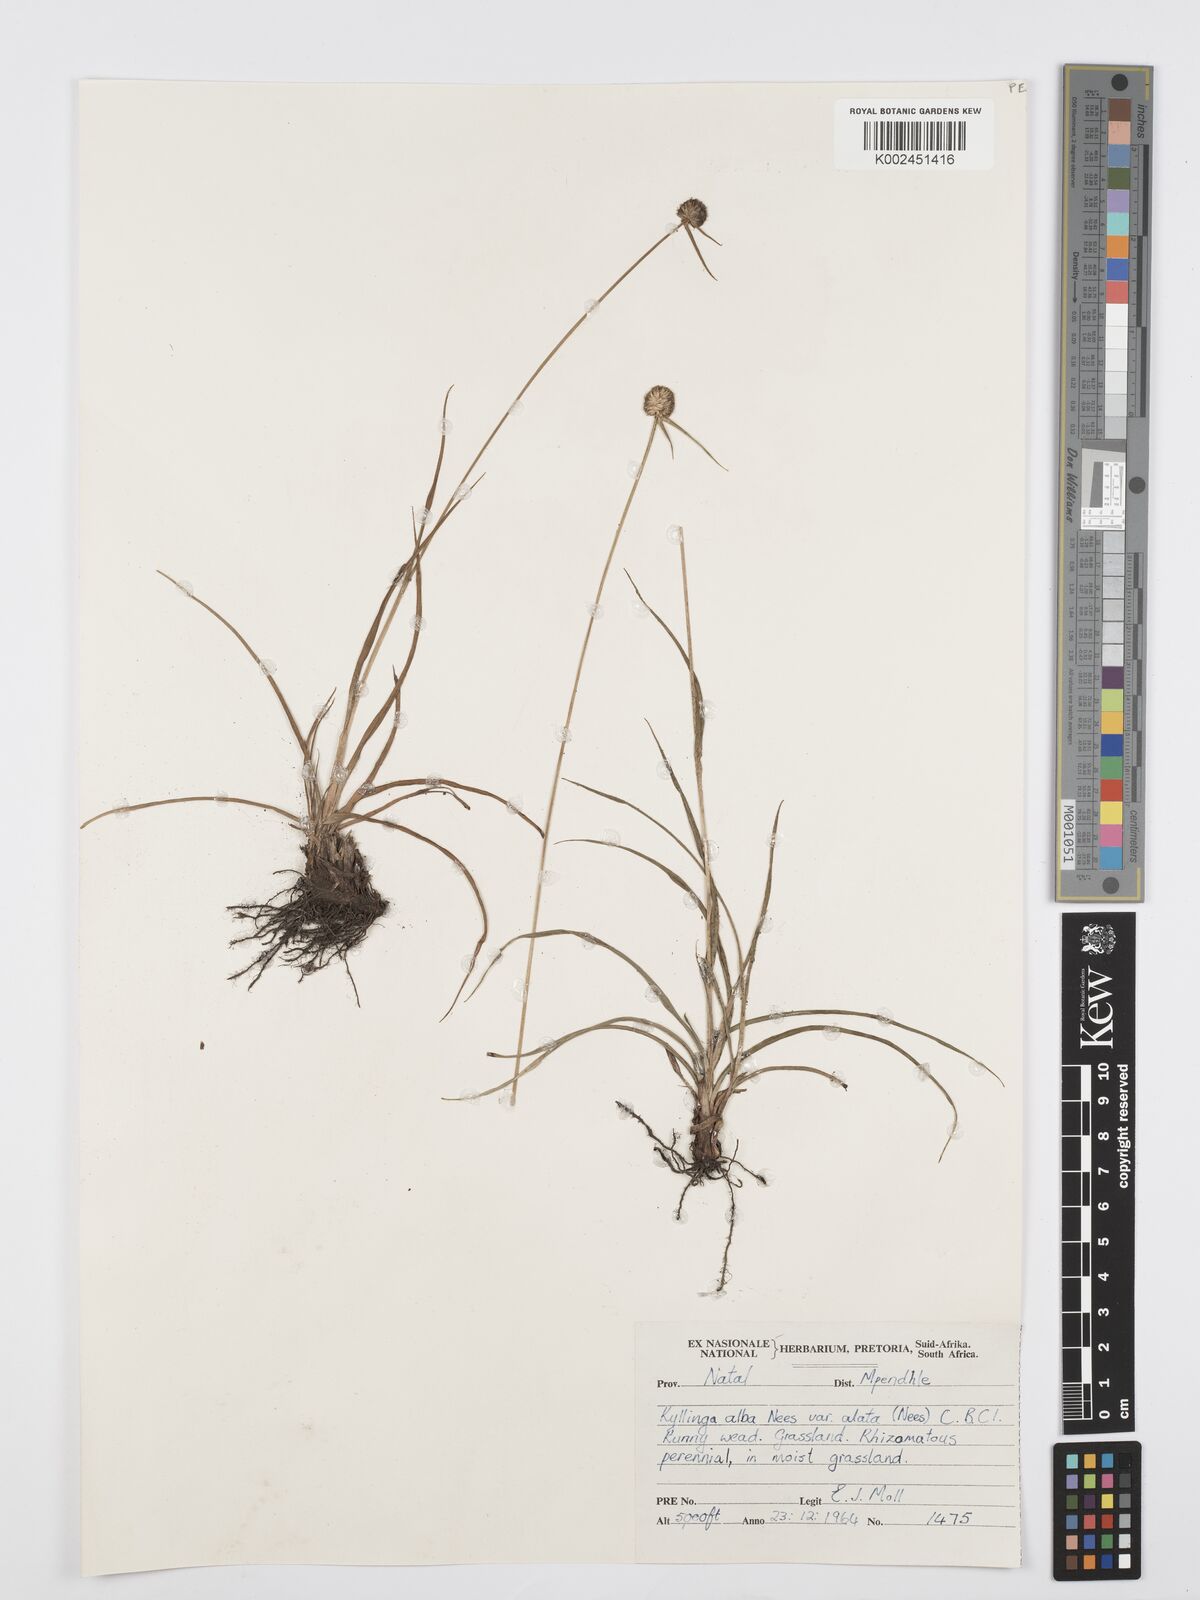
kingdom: Plantae
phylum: Tracheophyta
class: Liliopsida
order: Poales
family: Cyperaceae
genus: Cyperus
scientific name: Cyperus
